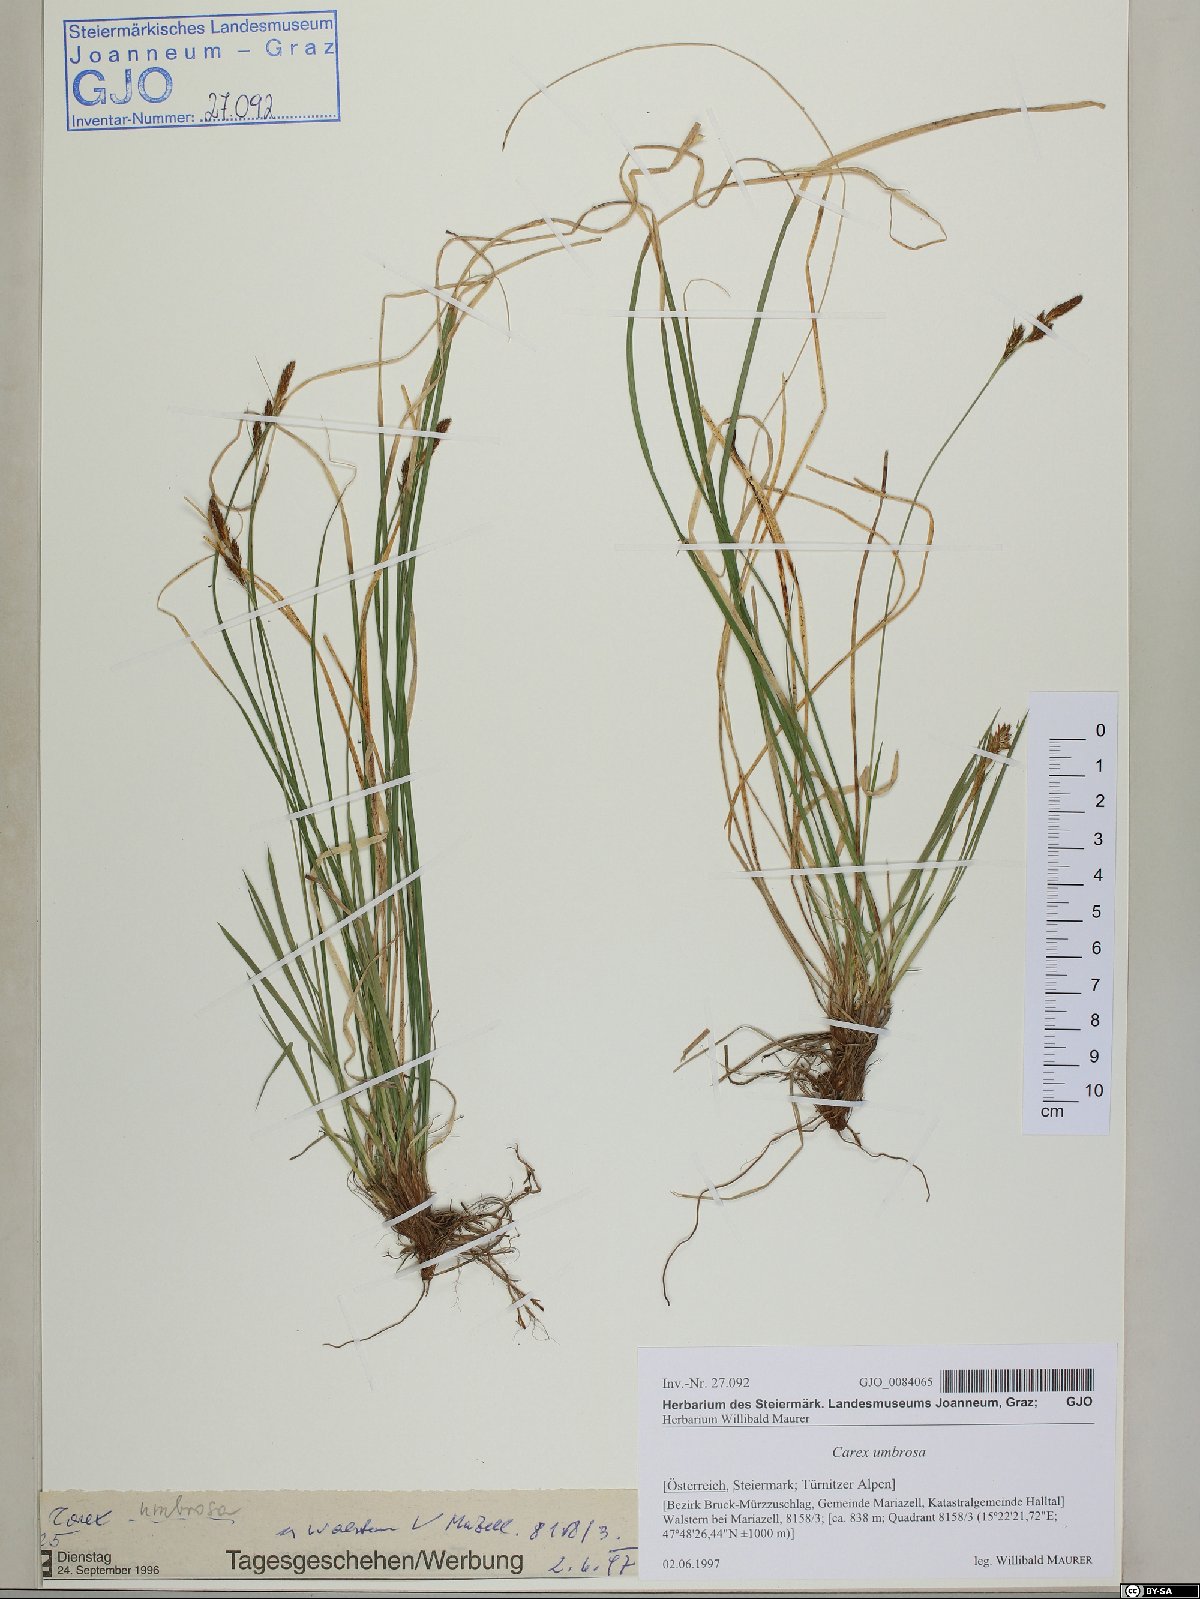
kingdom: Plantae
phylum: Tracheophyta
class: Liliopsida
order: Poales
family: Cyperaceae
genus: Carex
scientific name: Carex umbrosa
